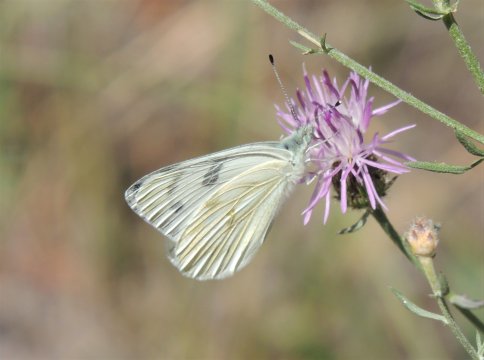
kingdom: Animalia
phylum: Arthropoda
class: Insecta
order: Lepidoptera
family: Pieridae
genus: Pontia
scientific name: Pontia occidentalis
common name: Western White
